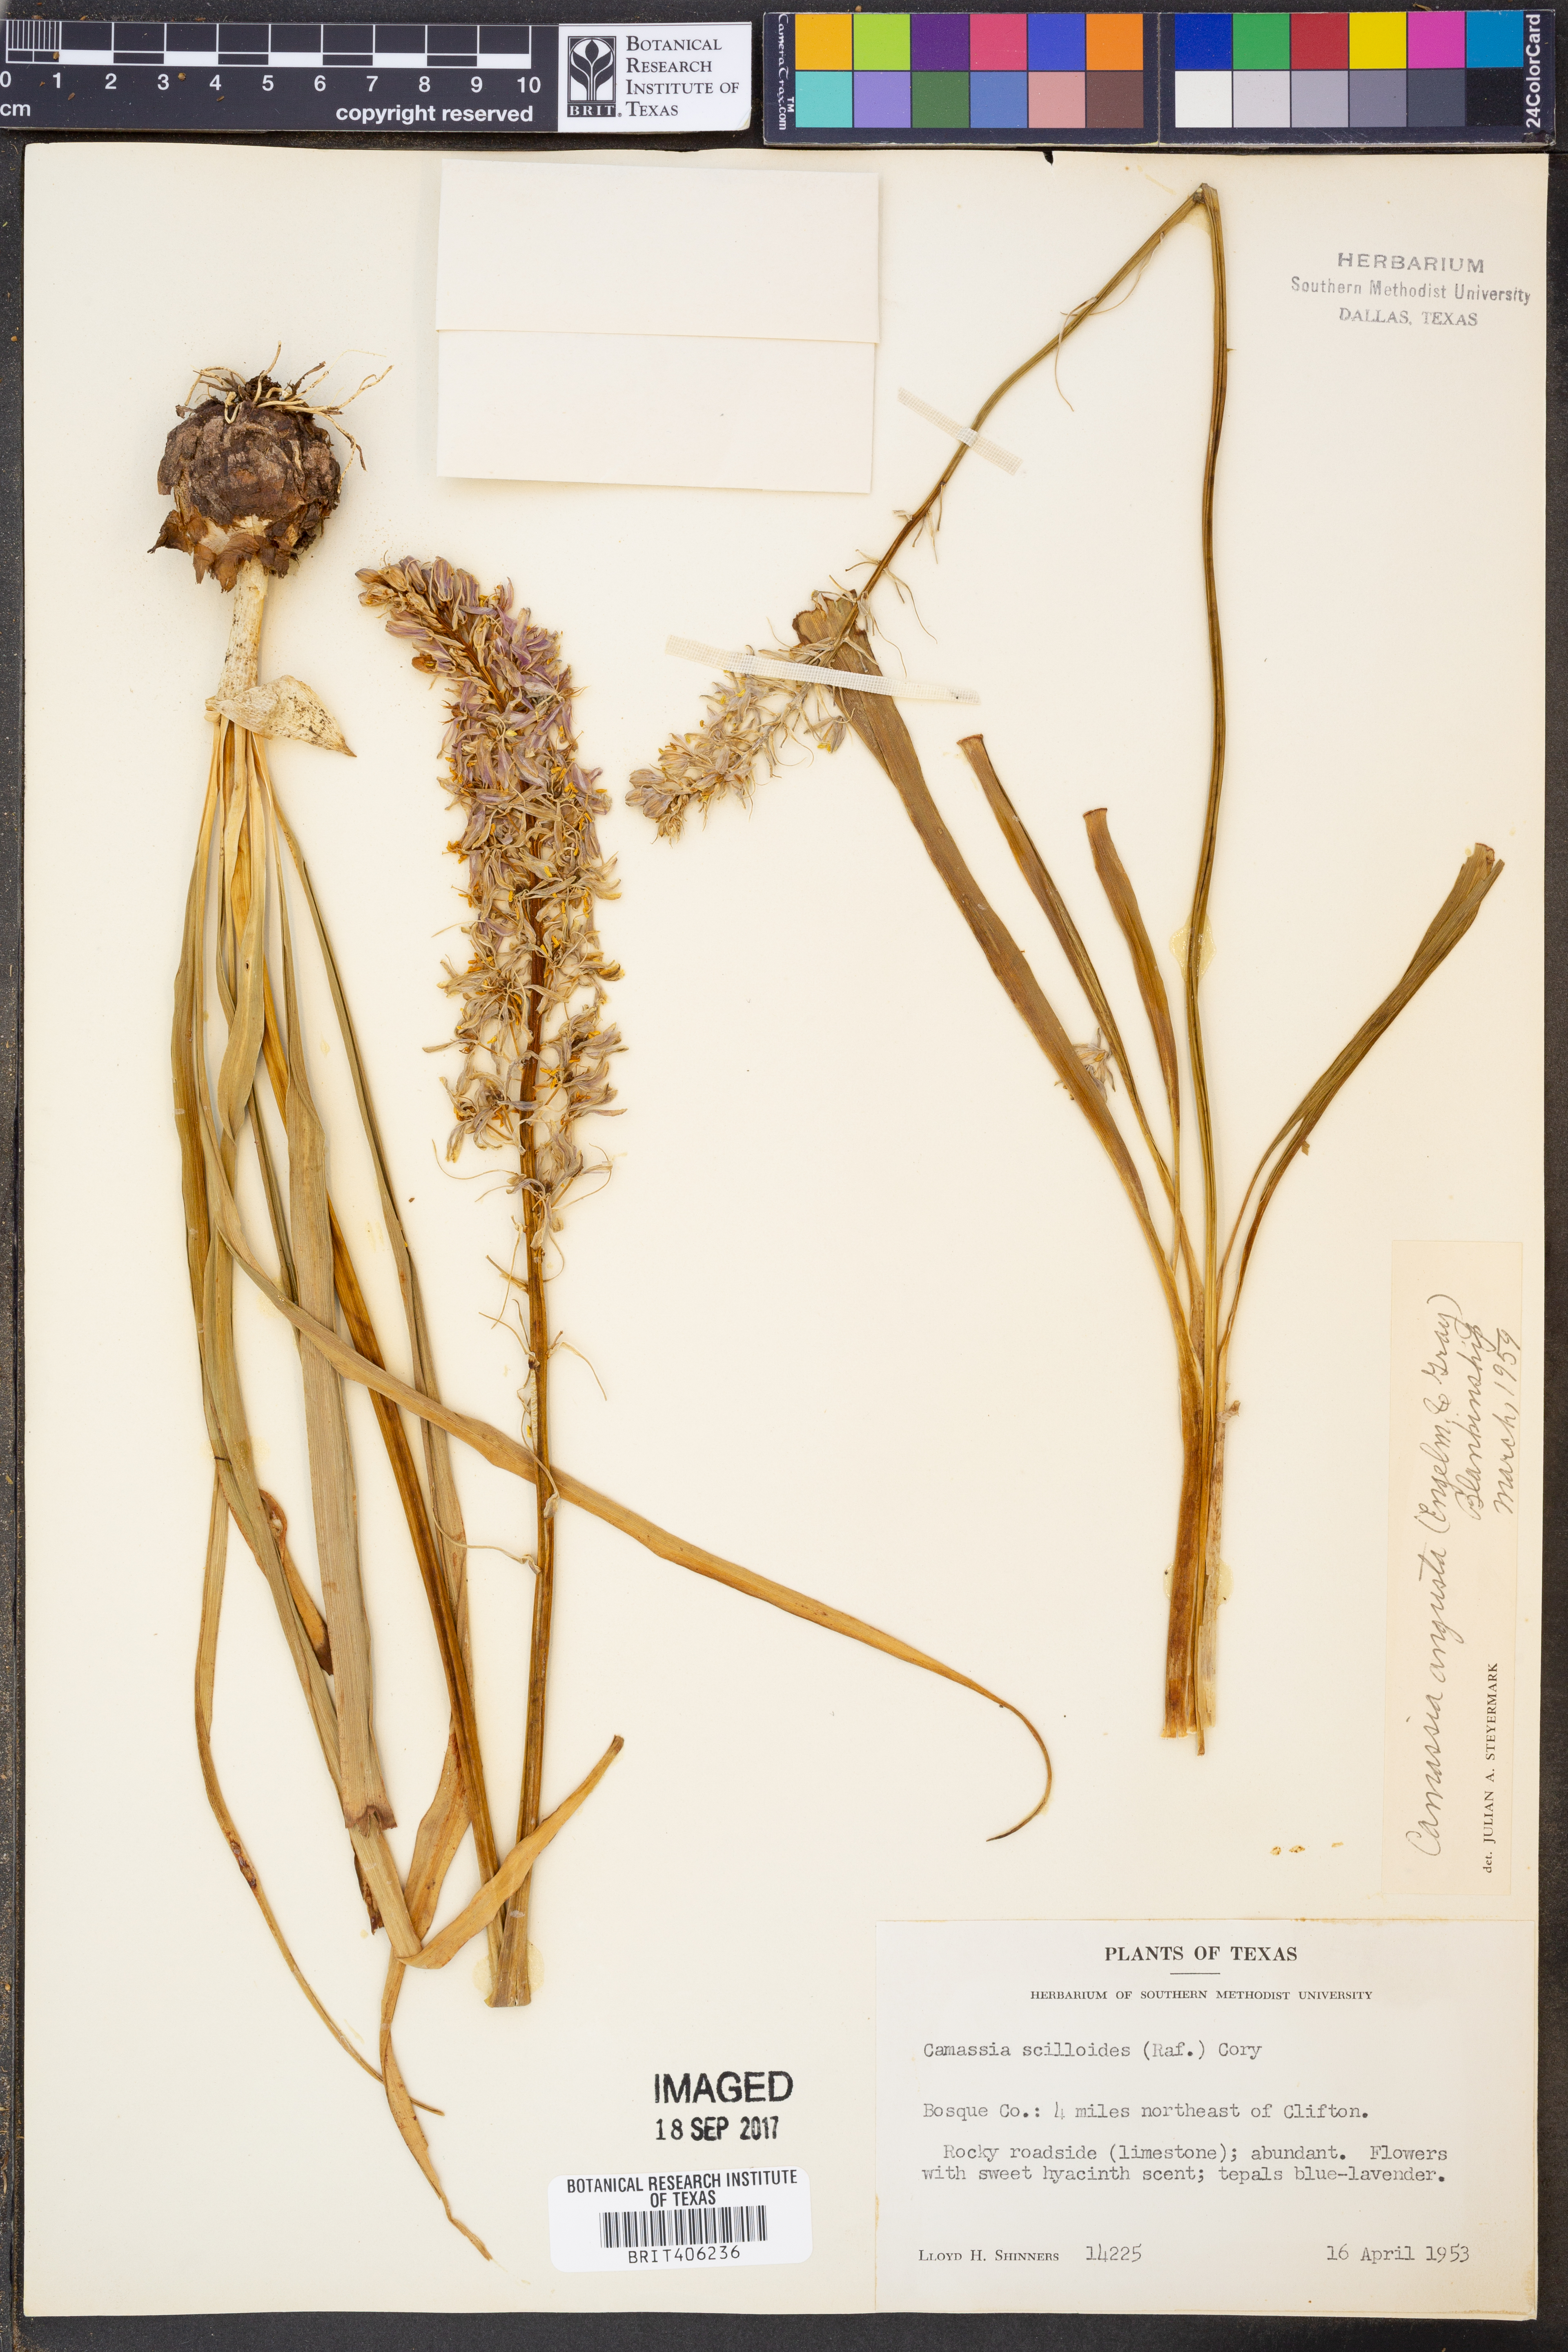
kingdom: Plantae
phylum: Tracheophyta
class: Liliopsida
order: Asparagales
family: Asparagaceae
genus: Camassia
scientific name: Camassia angusta
